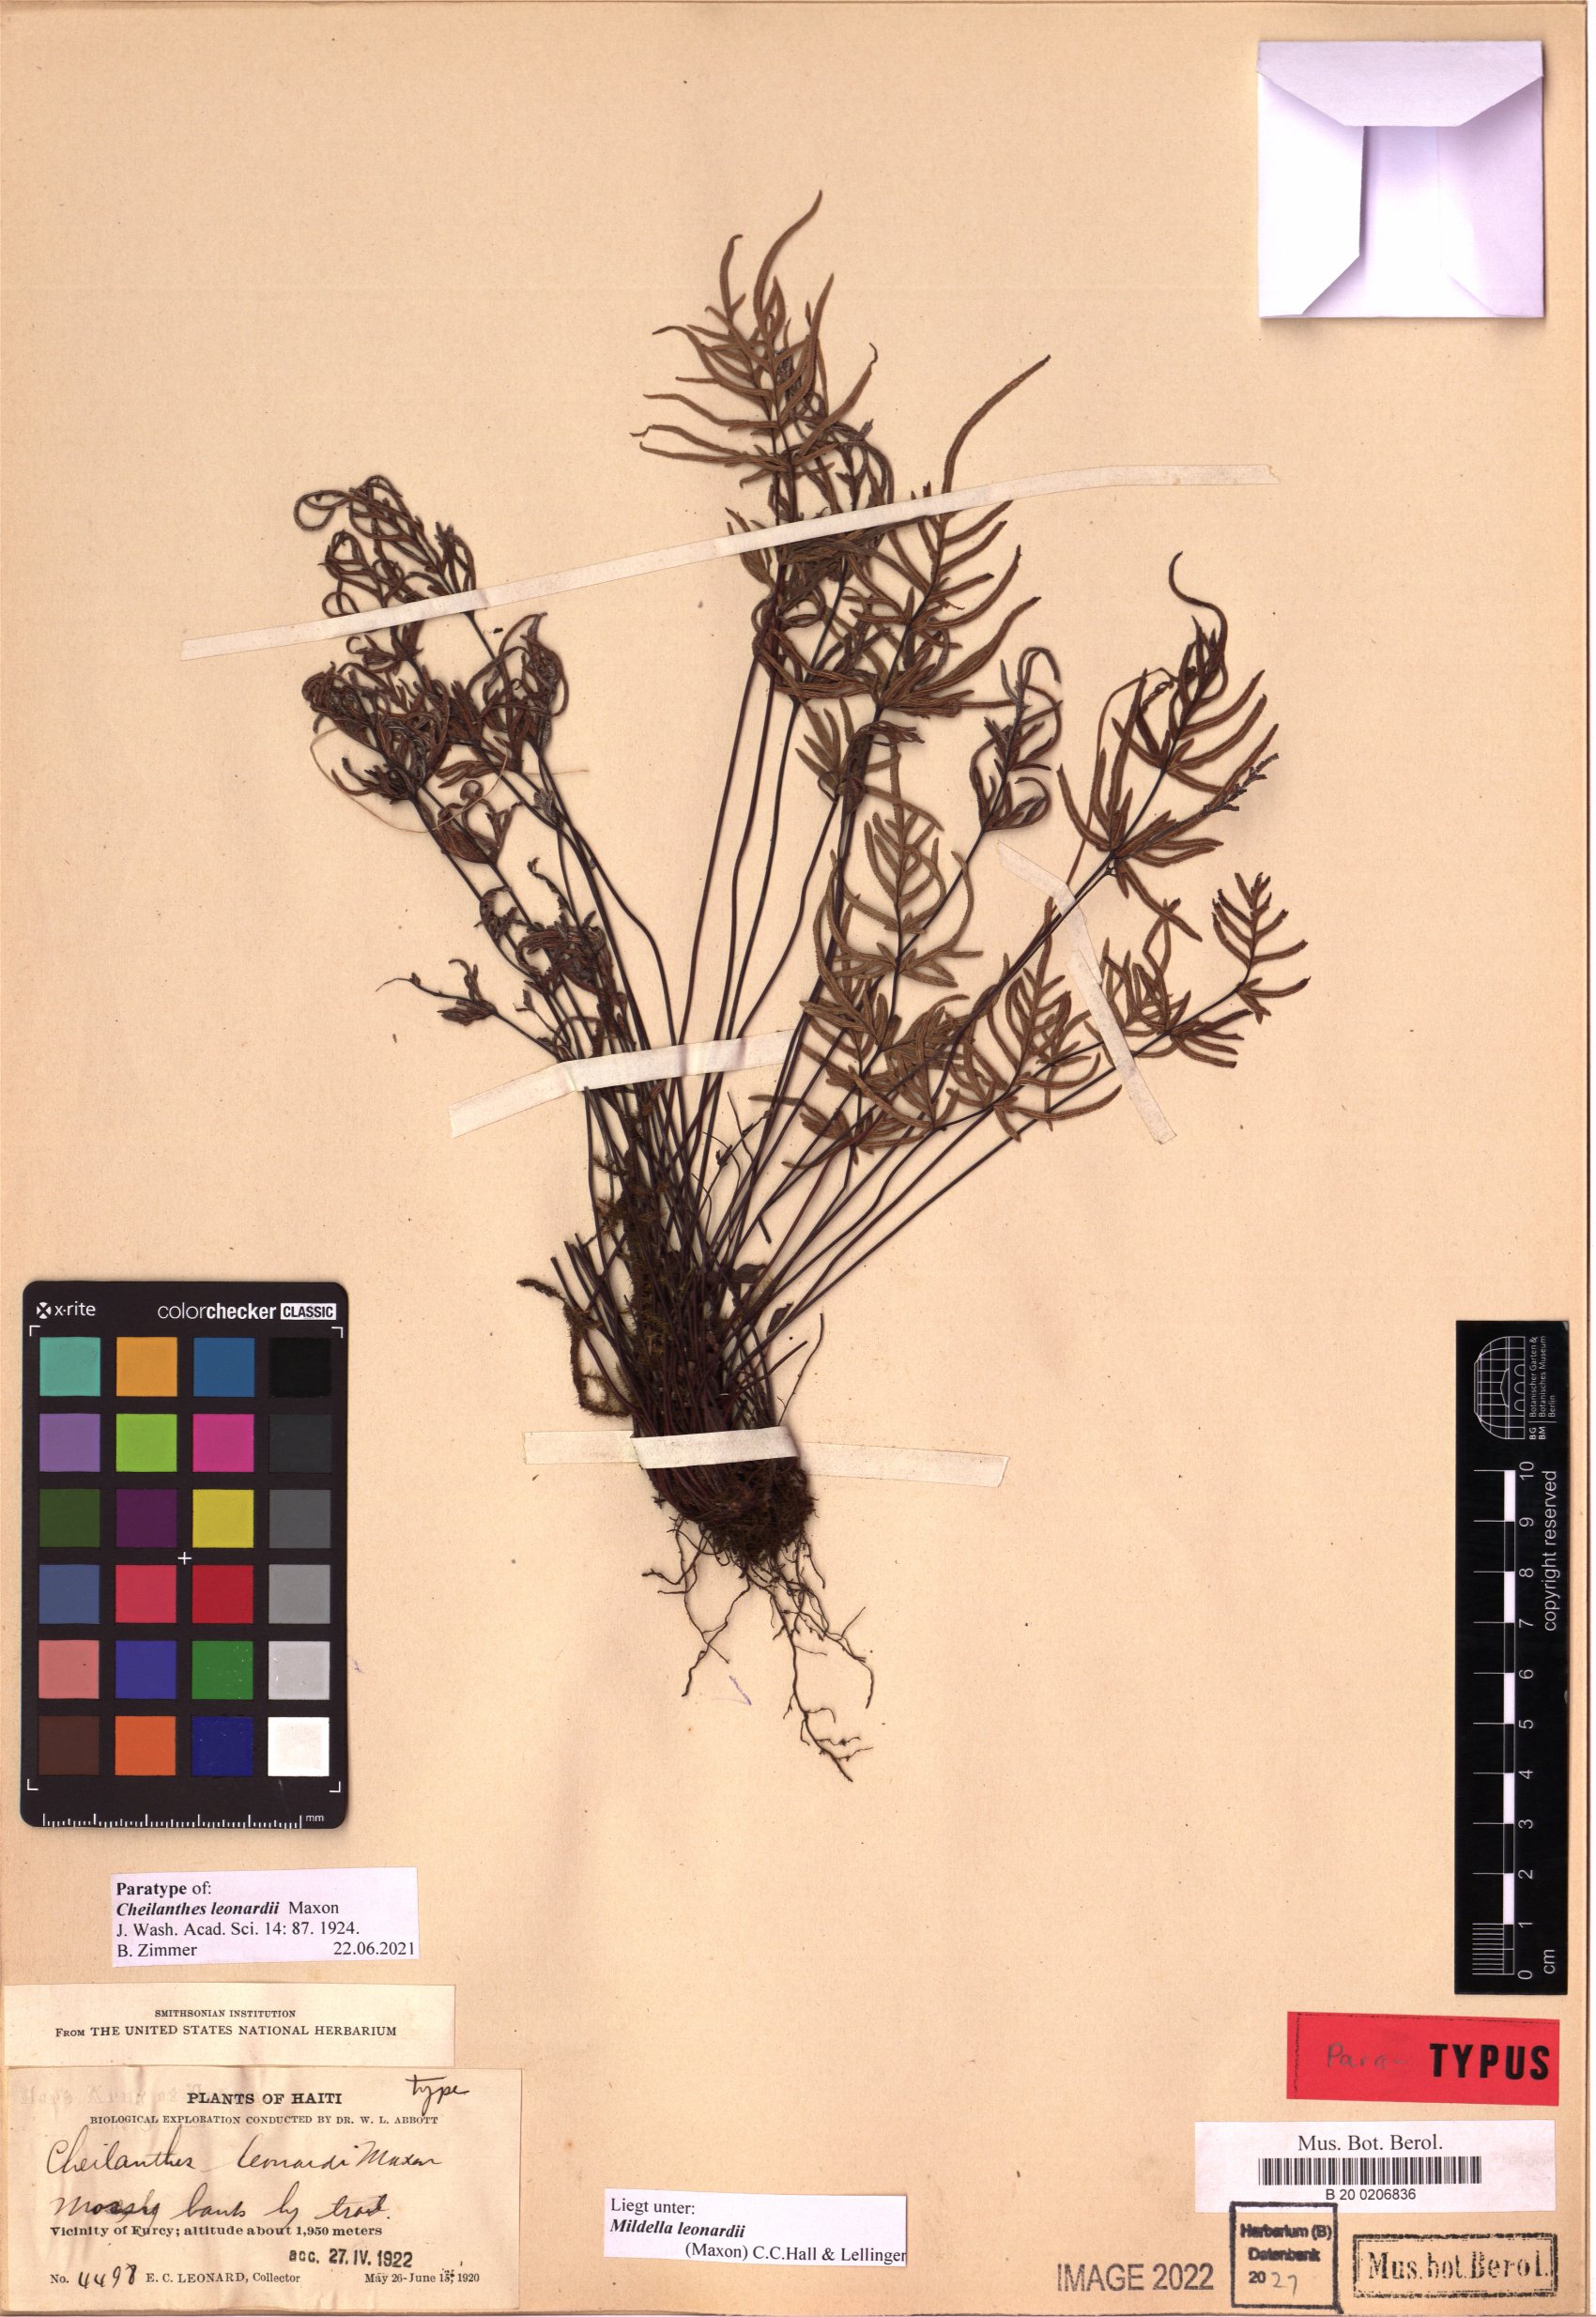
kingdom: Plantae
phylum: Tracheophyta
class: Polypodiopsida
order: Polypodiales
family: Pteridaceae
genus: Mildella
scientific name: Mildella leonardii
